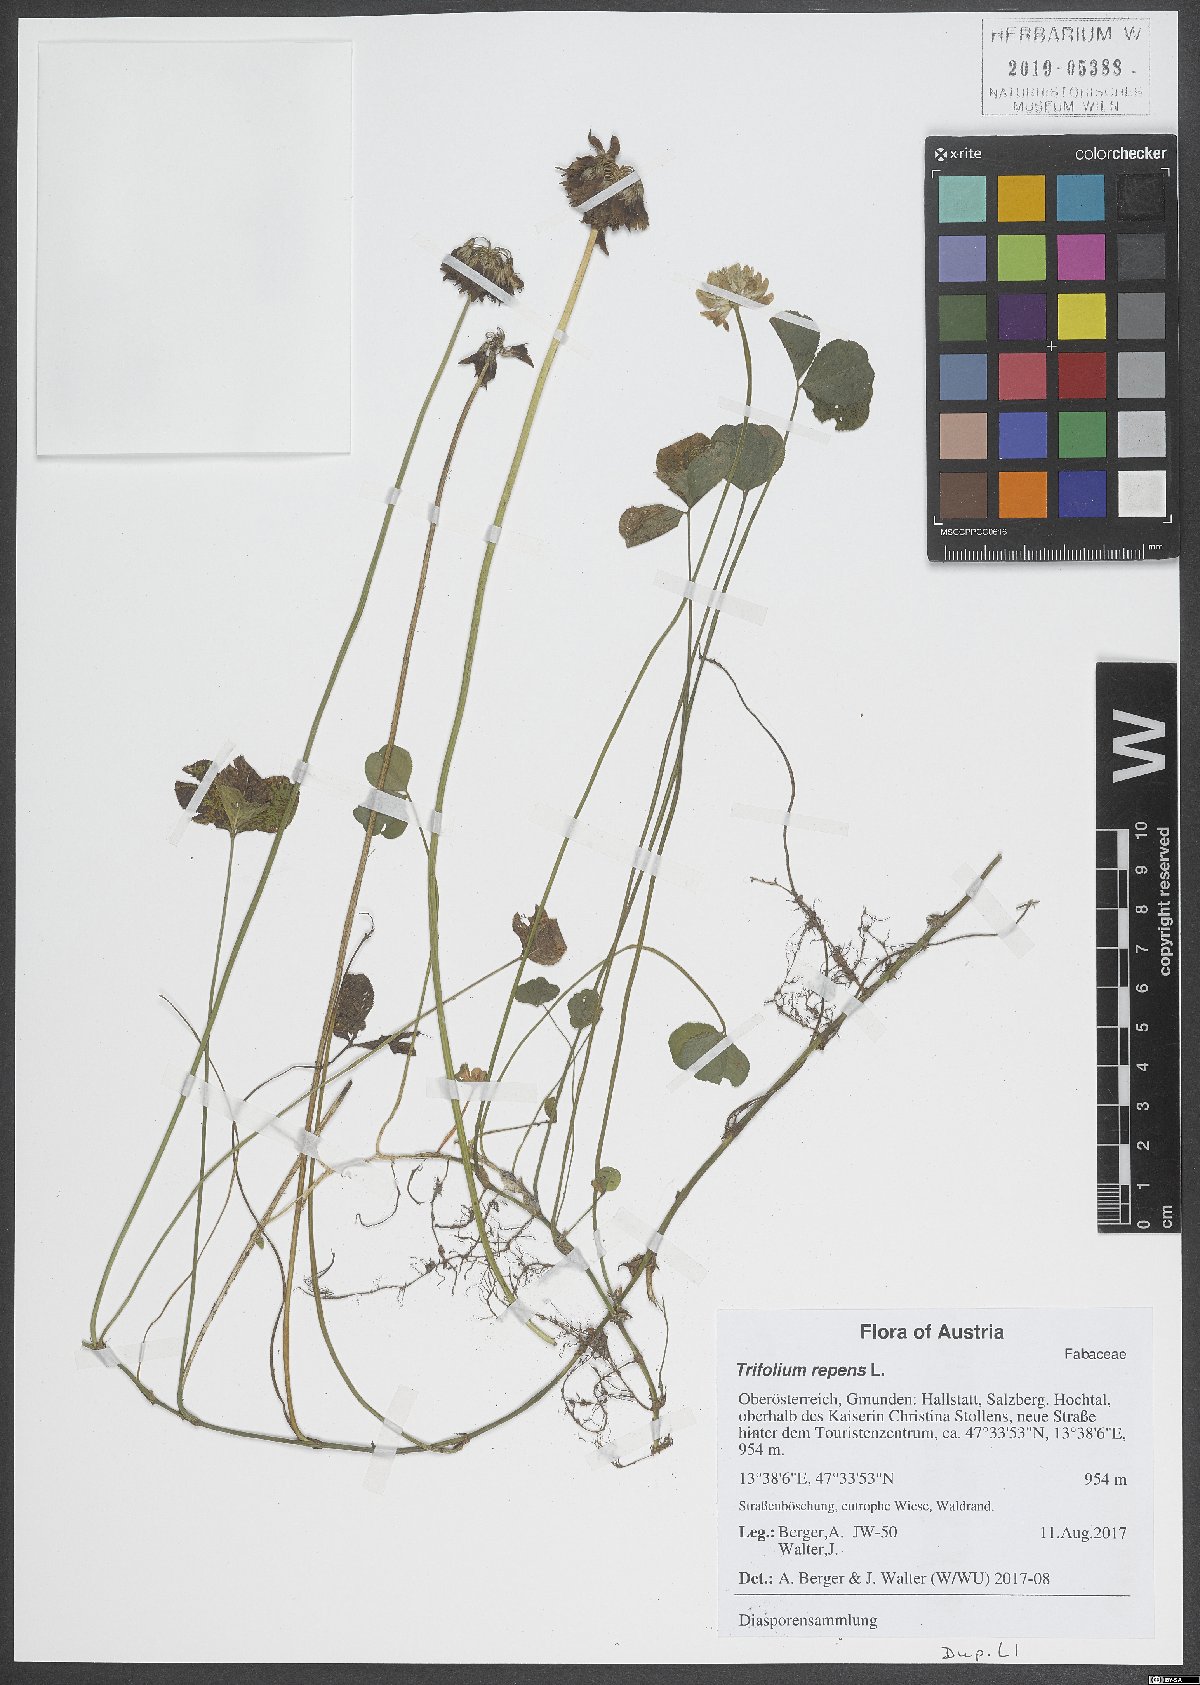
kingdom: Plantae
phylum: Tracheophyta
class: Magnoliopsida
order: Fabales
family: Fabaceae
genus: Trifolium
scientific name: Trifolium repens
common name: White clover
